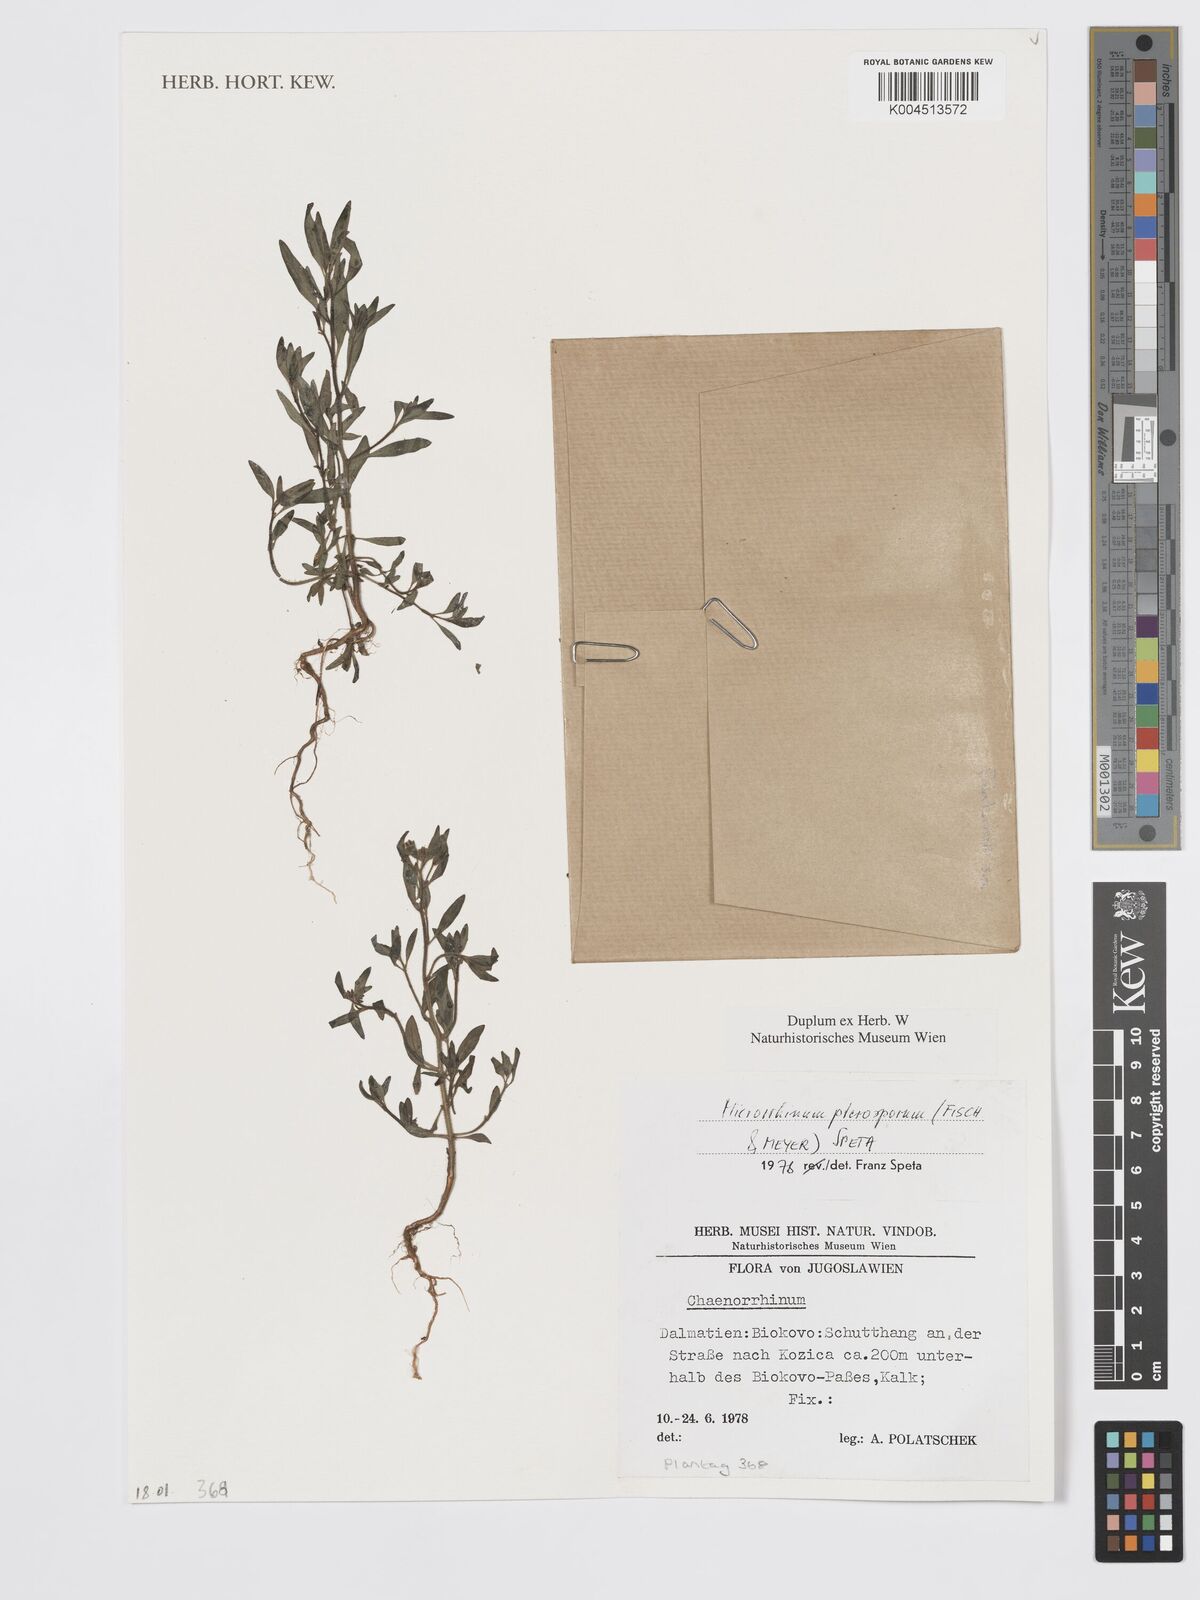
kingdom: Plantae
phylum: Tracheophyta
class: Magnoliopsida
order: Lamiales
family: Plantaginaceae
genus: Chaenorhinum
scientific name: Chaenorhinum
